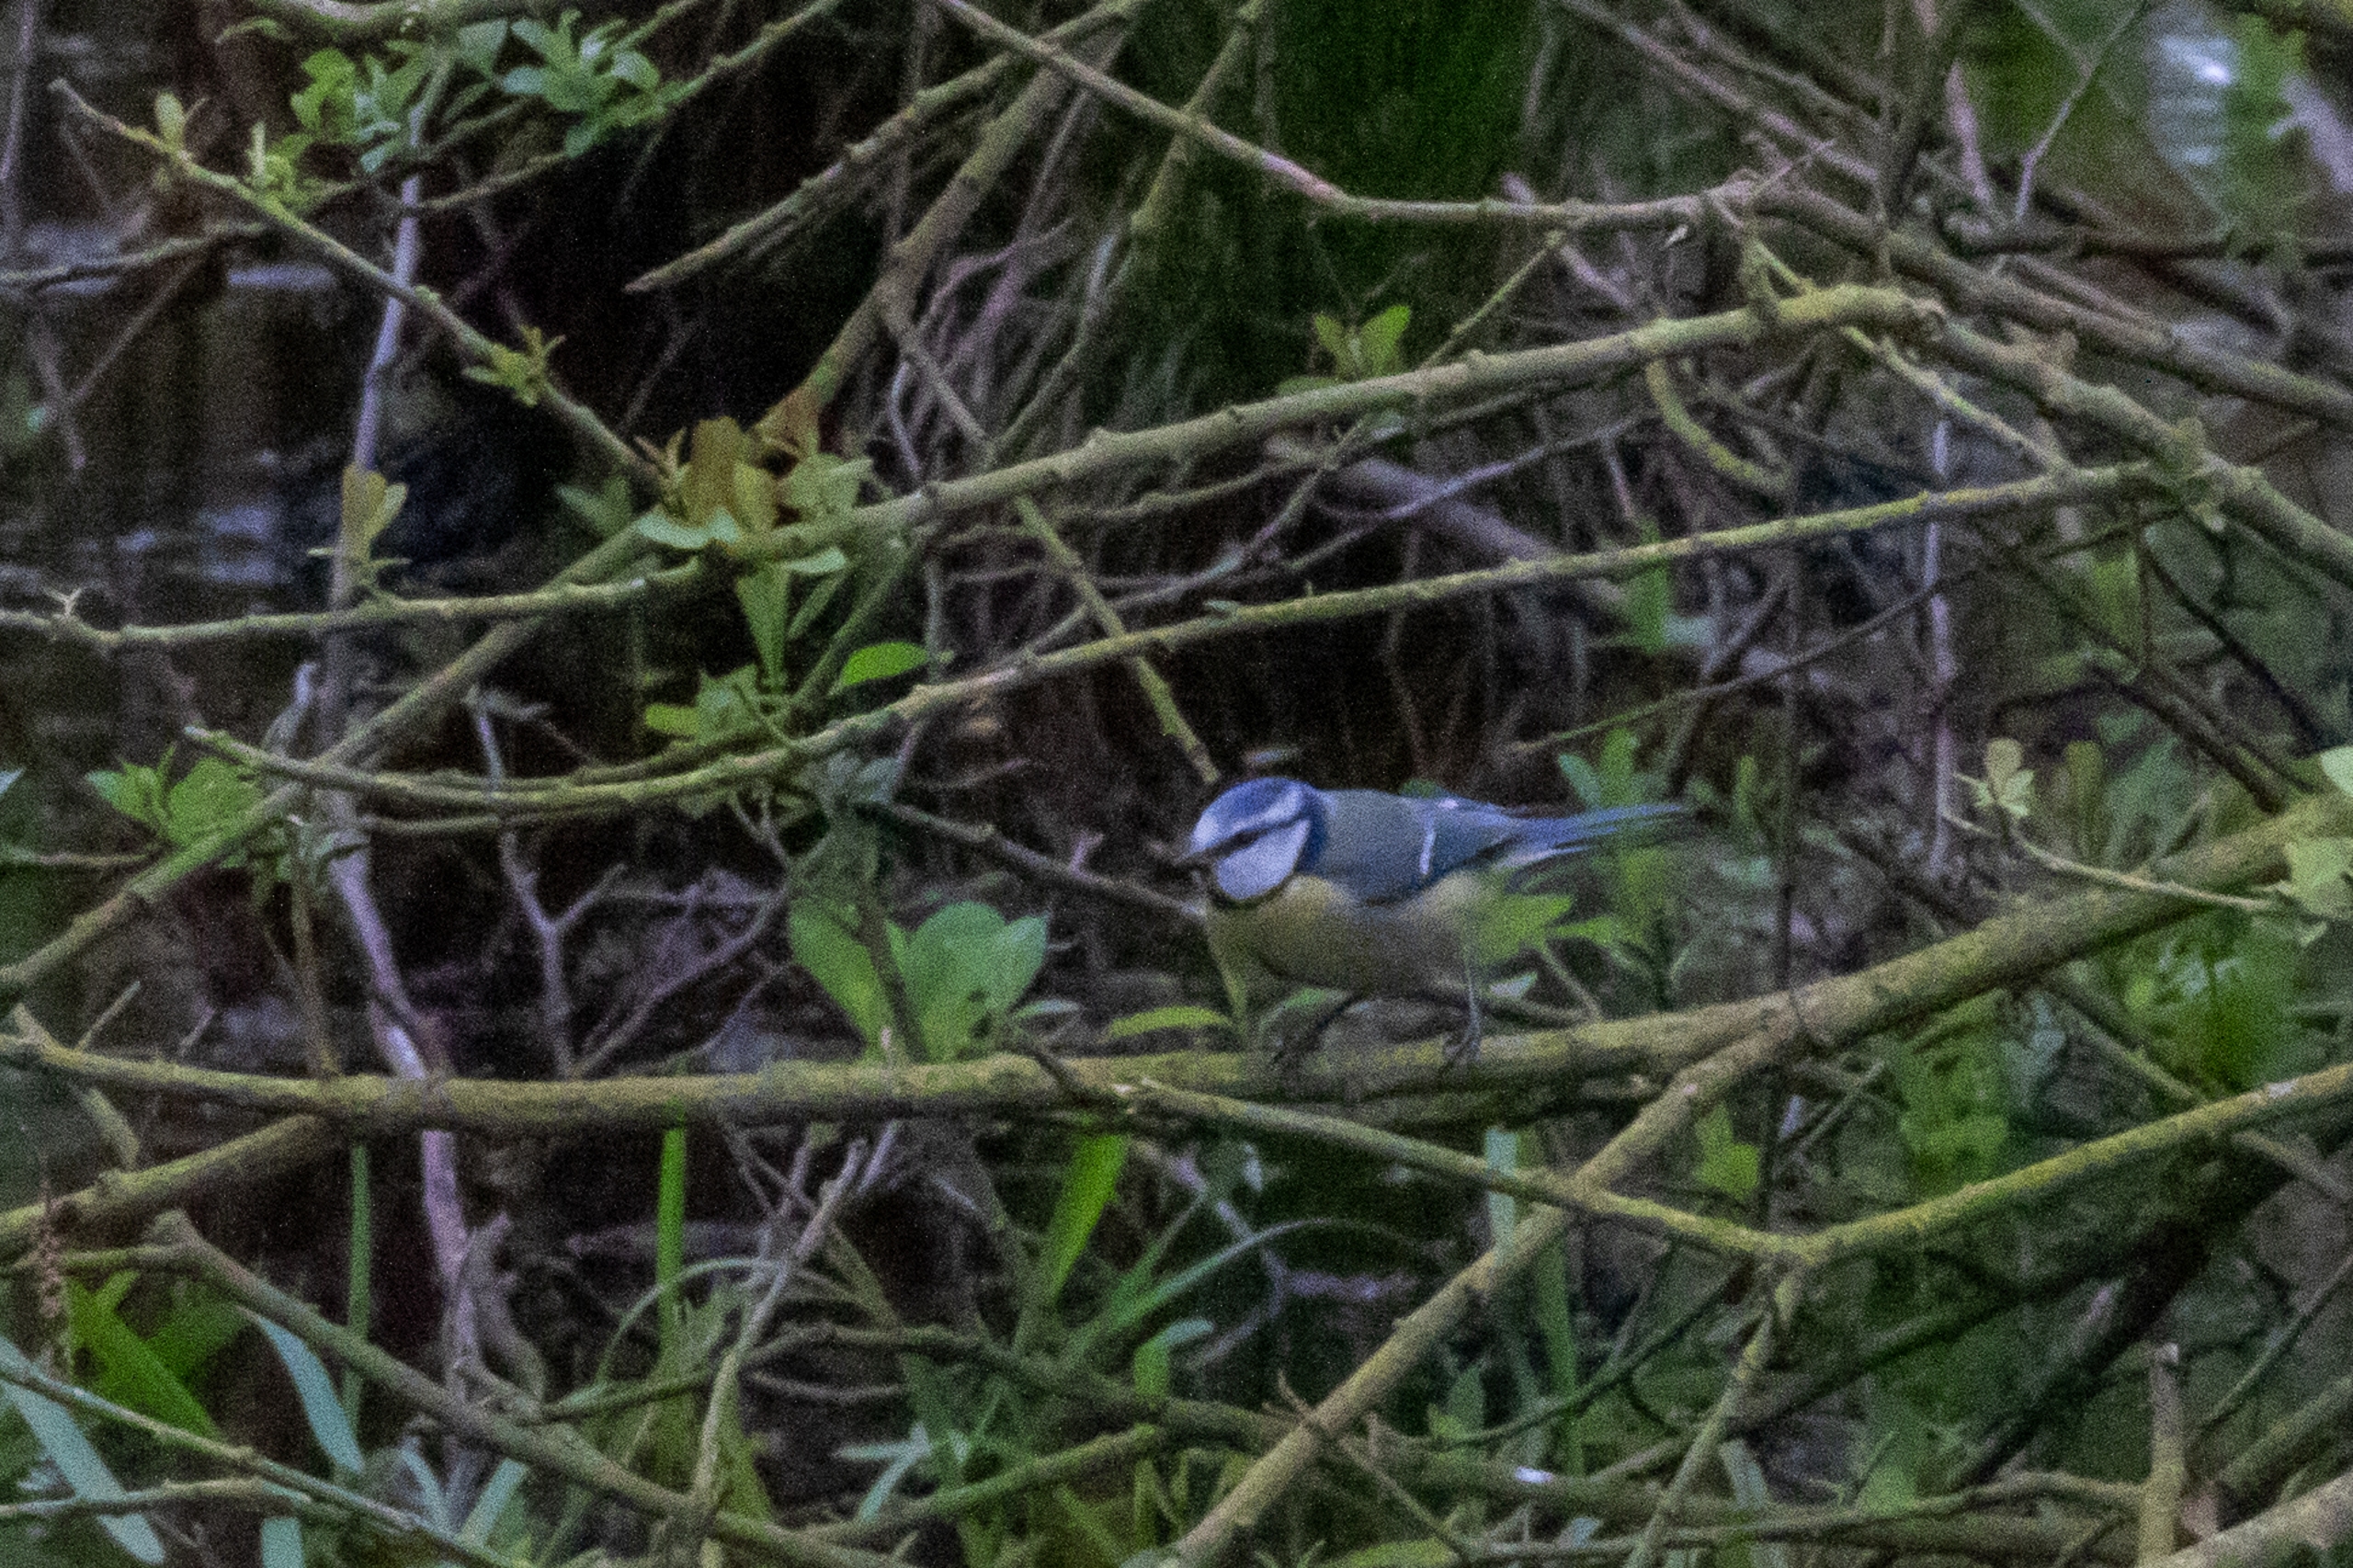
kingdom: Animalia
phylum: Chordata
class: Aves
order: Passeriformes
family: Paridae
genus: Cyanistes
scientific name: Cyanistes caeruleus
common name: Blåmejse
